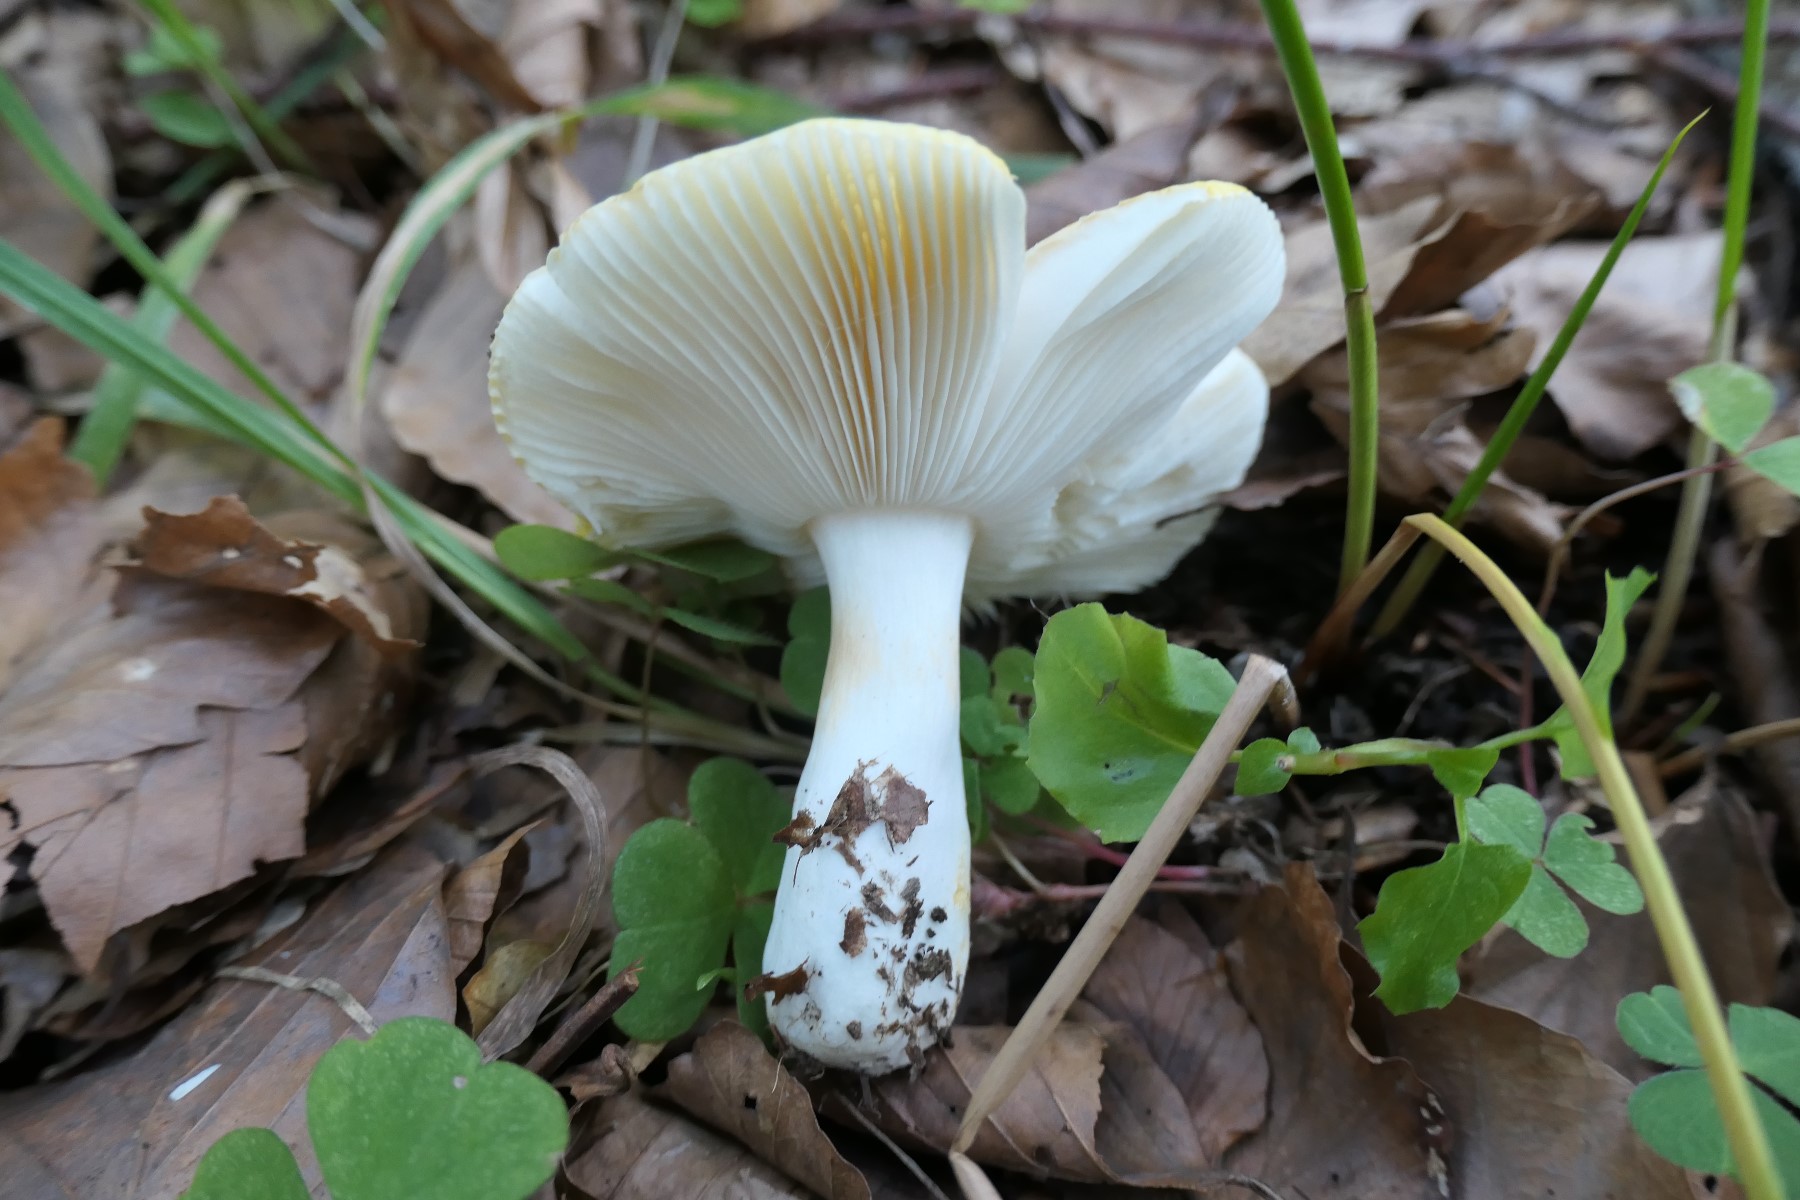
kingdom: Fungi
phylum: Basidiomycota
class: Agaricomycetes
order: Russulales
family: Russulaceae
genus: Russula
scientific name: Russula solaris
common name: sol-skørhat
